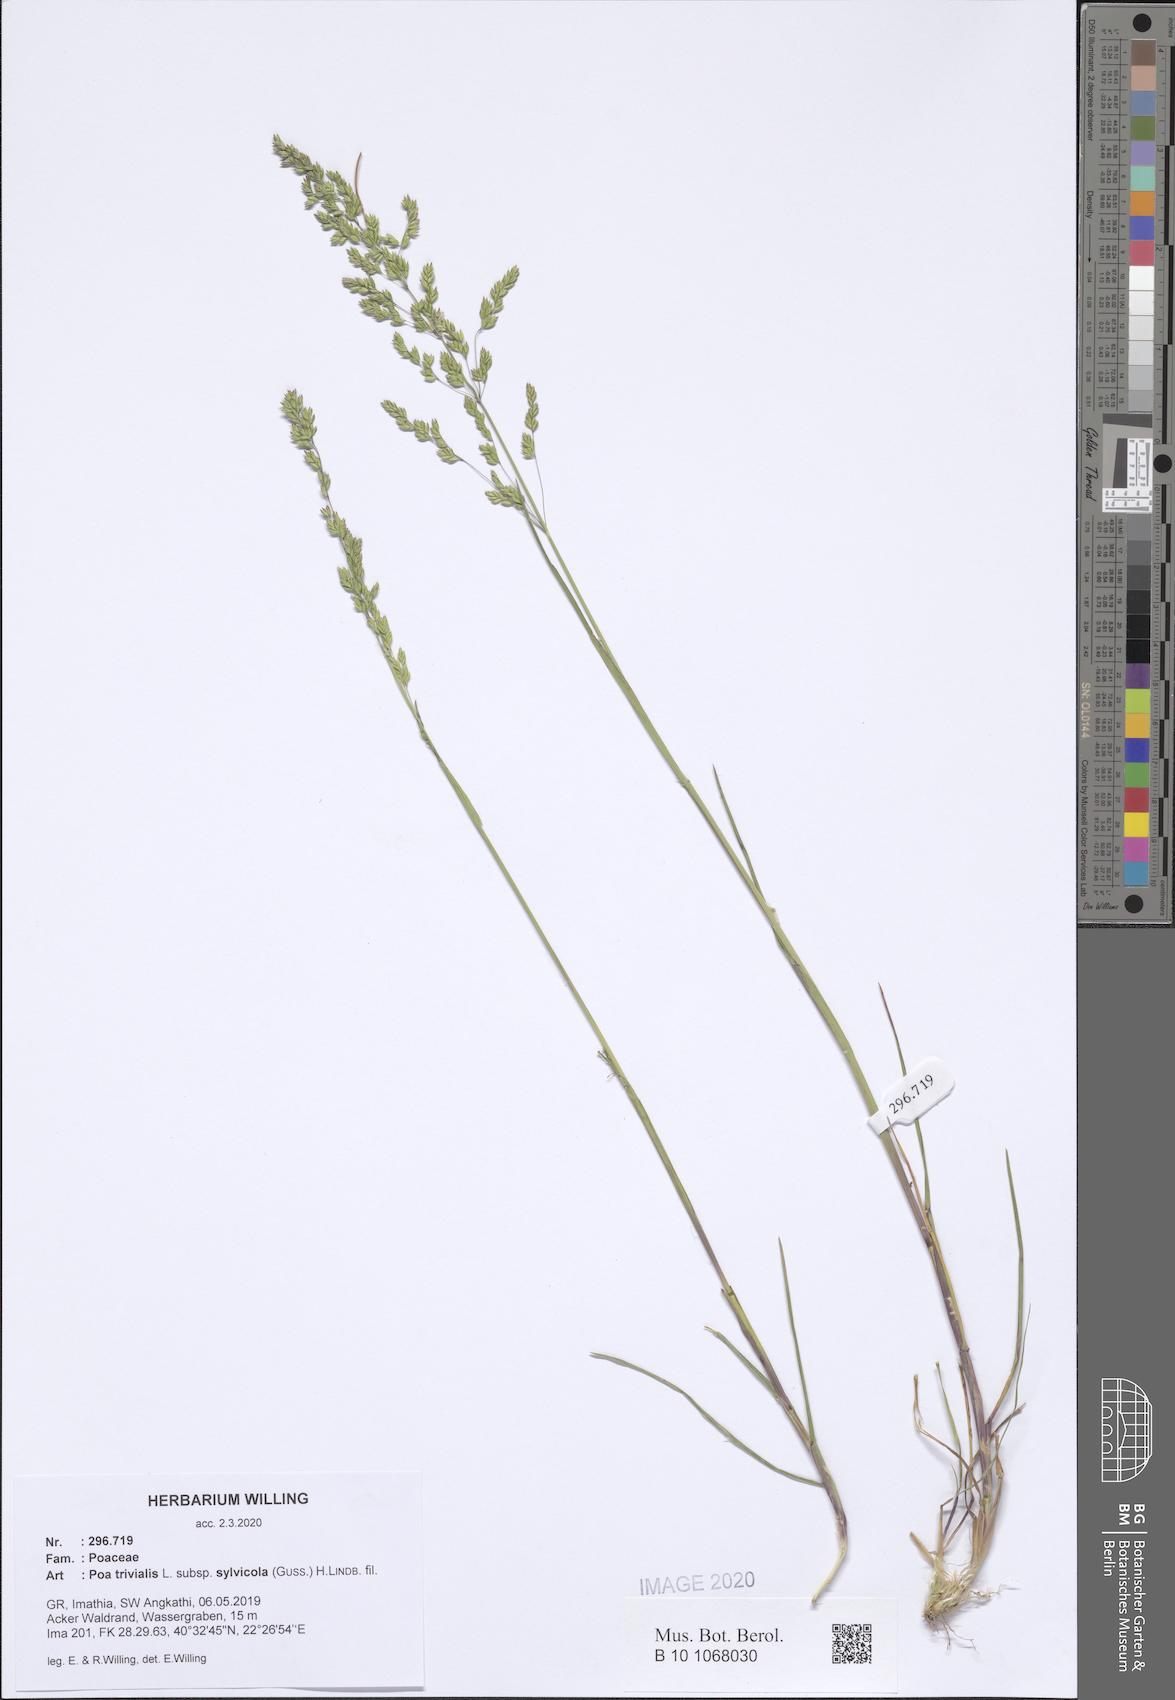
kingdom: Plantae
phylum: Tracheophyta
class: Liliopsida
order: Poales
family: Poaceae
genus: Poa
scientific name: Poa trivialis
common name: Rough bluegrass
